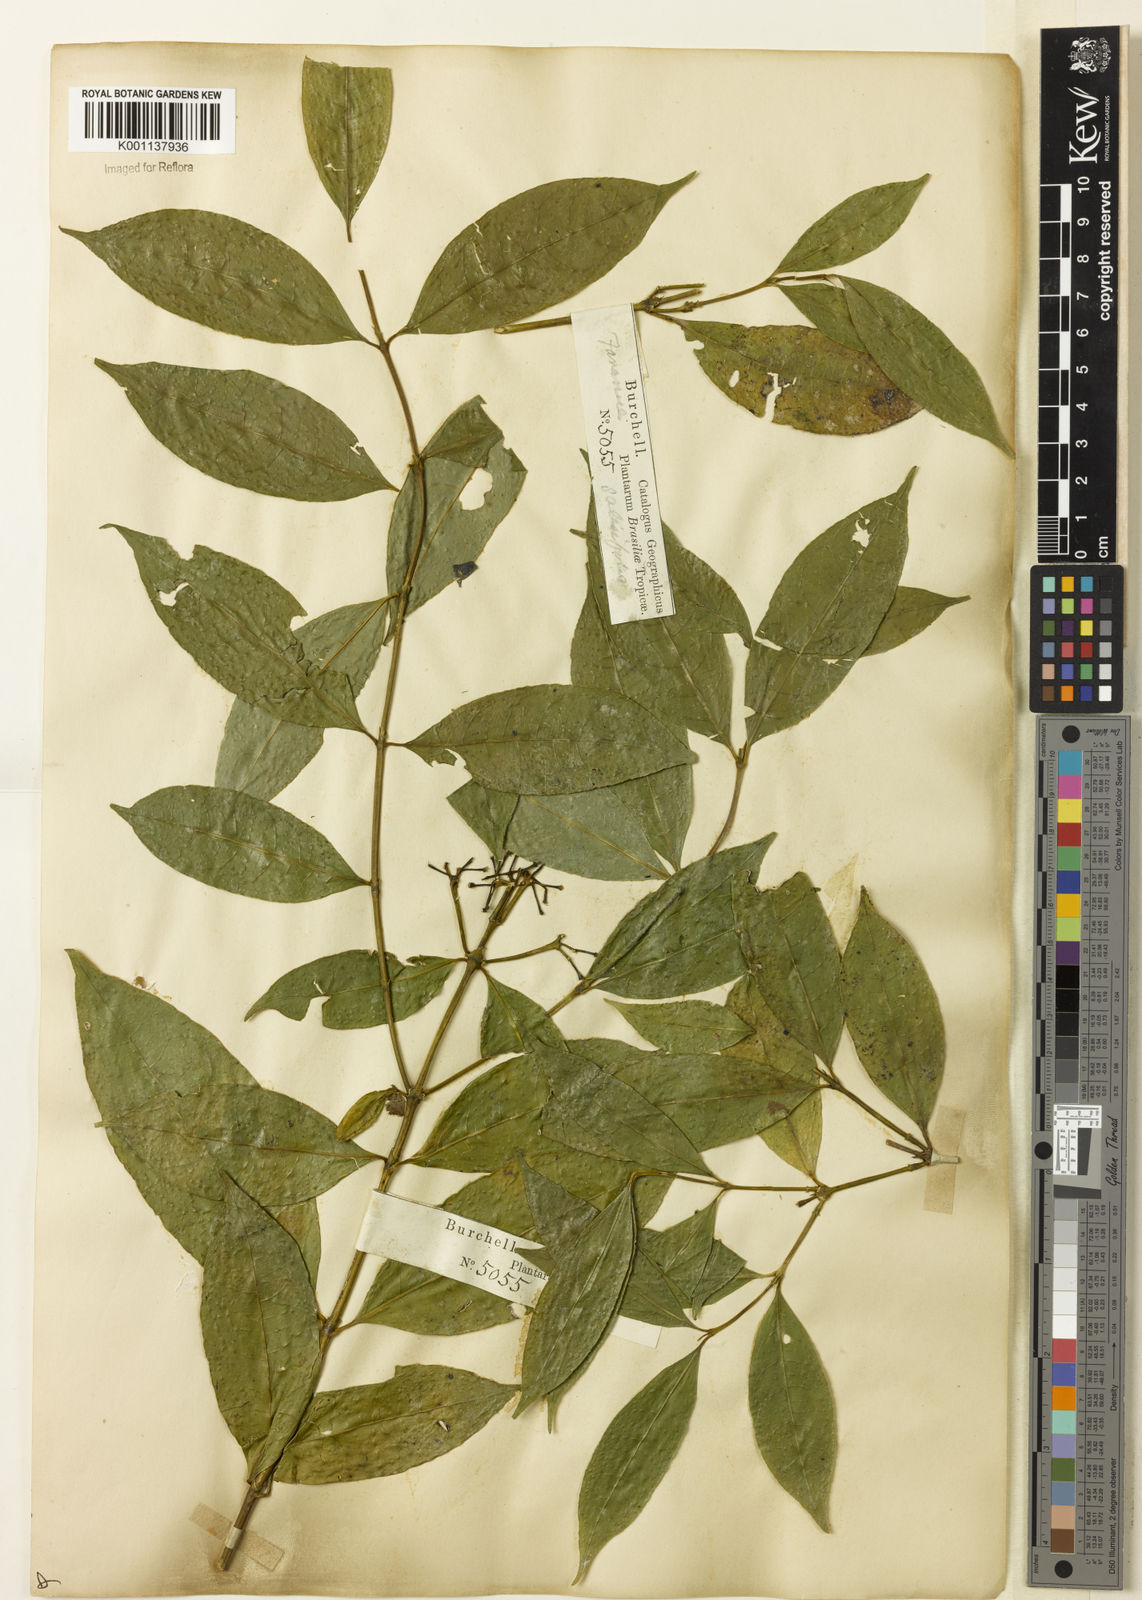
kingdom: Plantae
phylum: Tracheophyta
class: Magnoliopsida
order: Gentianales
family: Rubiaceae
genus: Faramea
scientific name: Faramea multiflora
